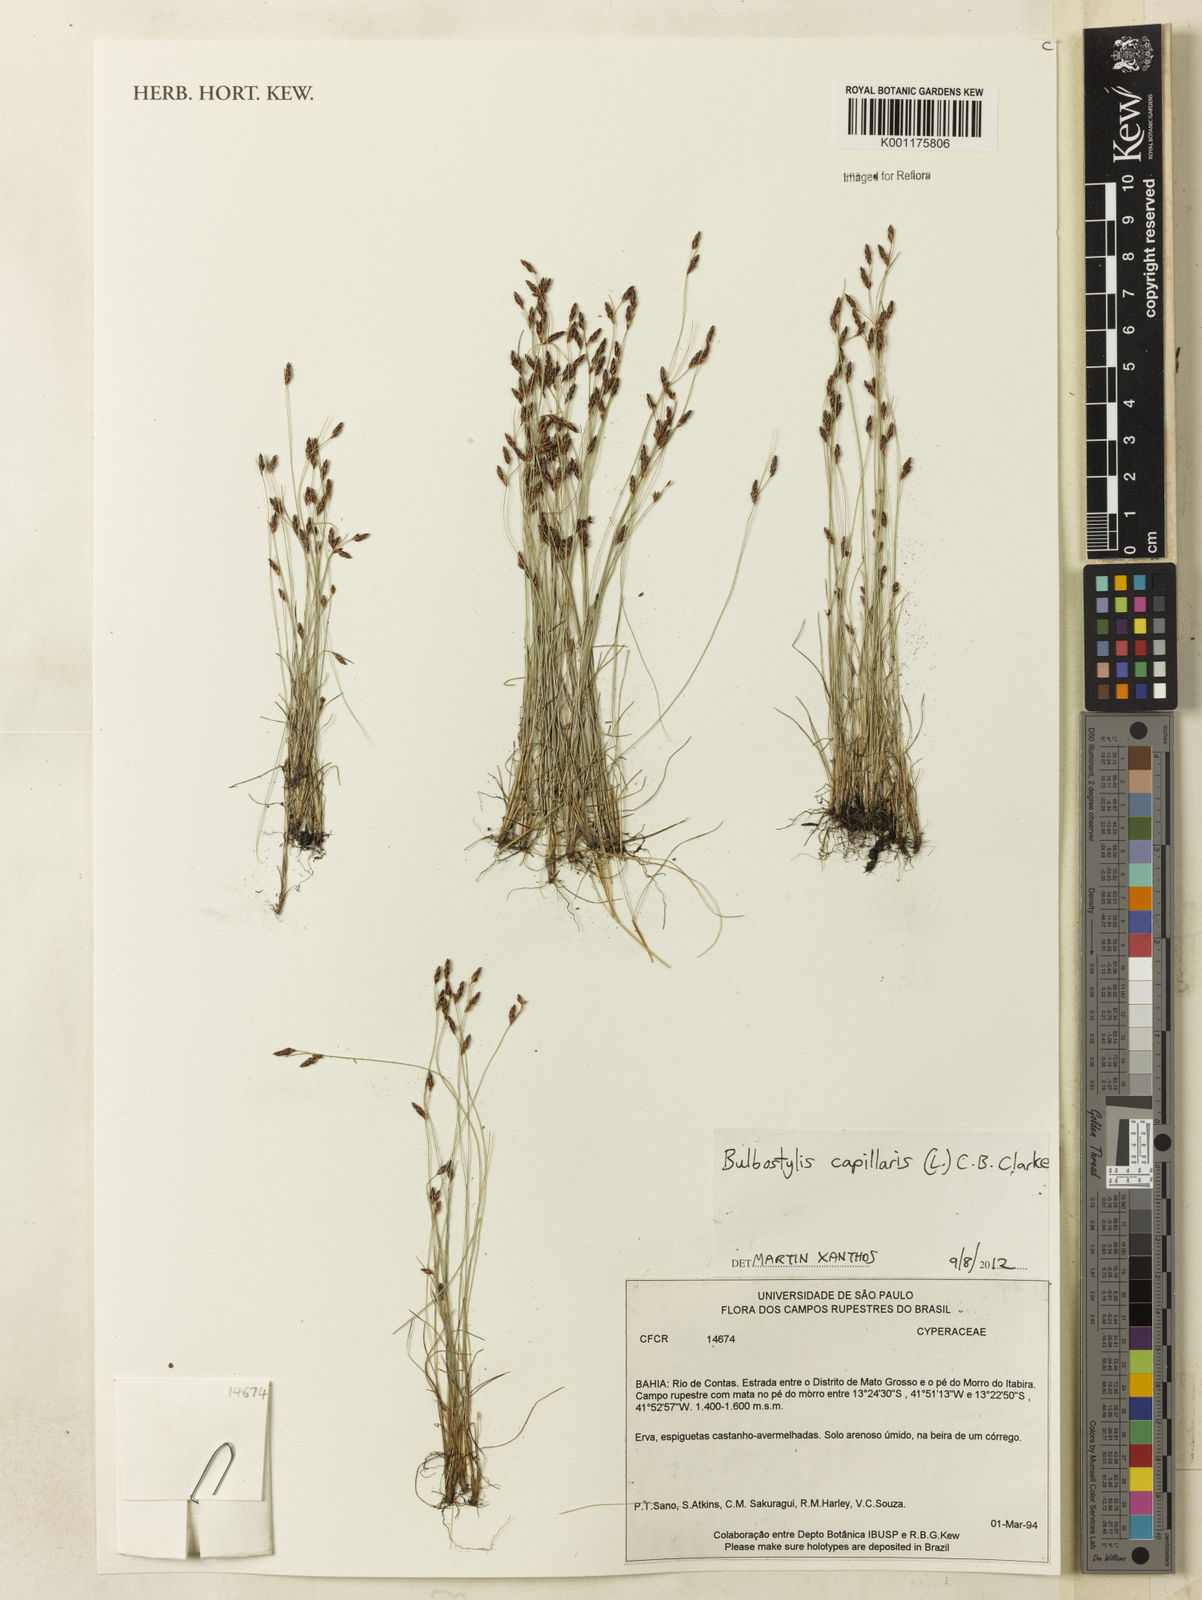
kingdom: Plantae
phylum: Tracheophyta
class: Liliopsida
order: Poales
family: Cyperaceae
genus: Bulbostylis
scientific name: Bulbostylis capillaris
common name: Densetuft hairsedge
